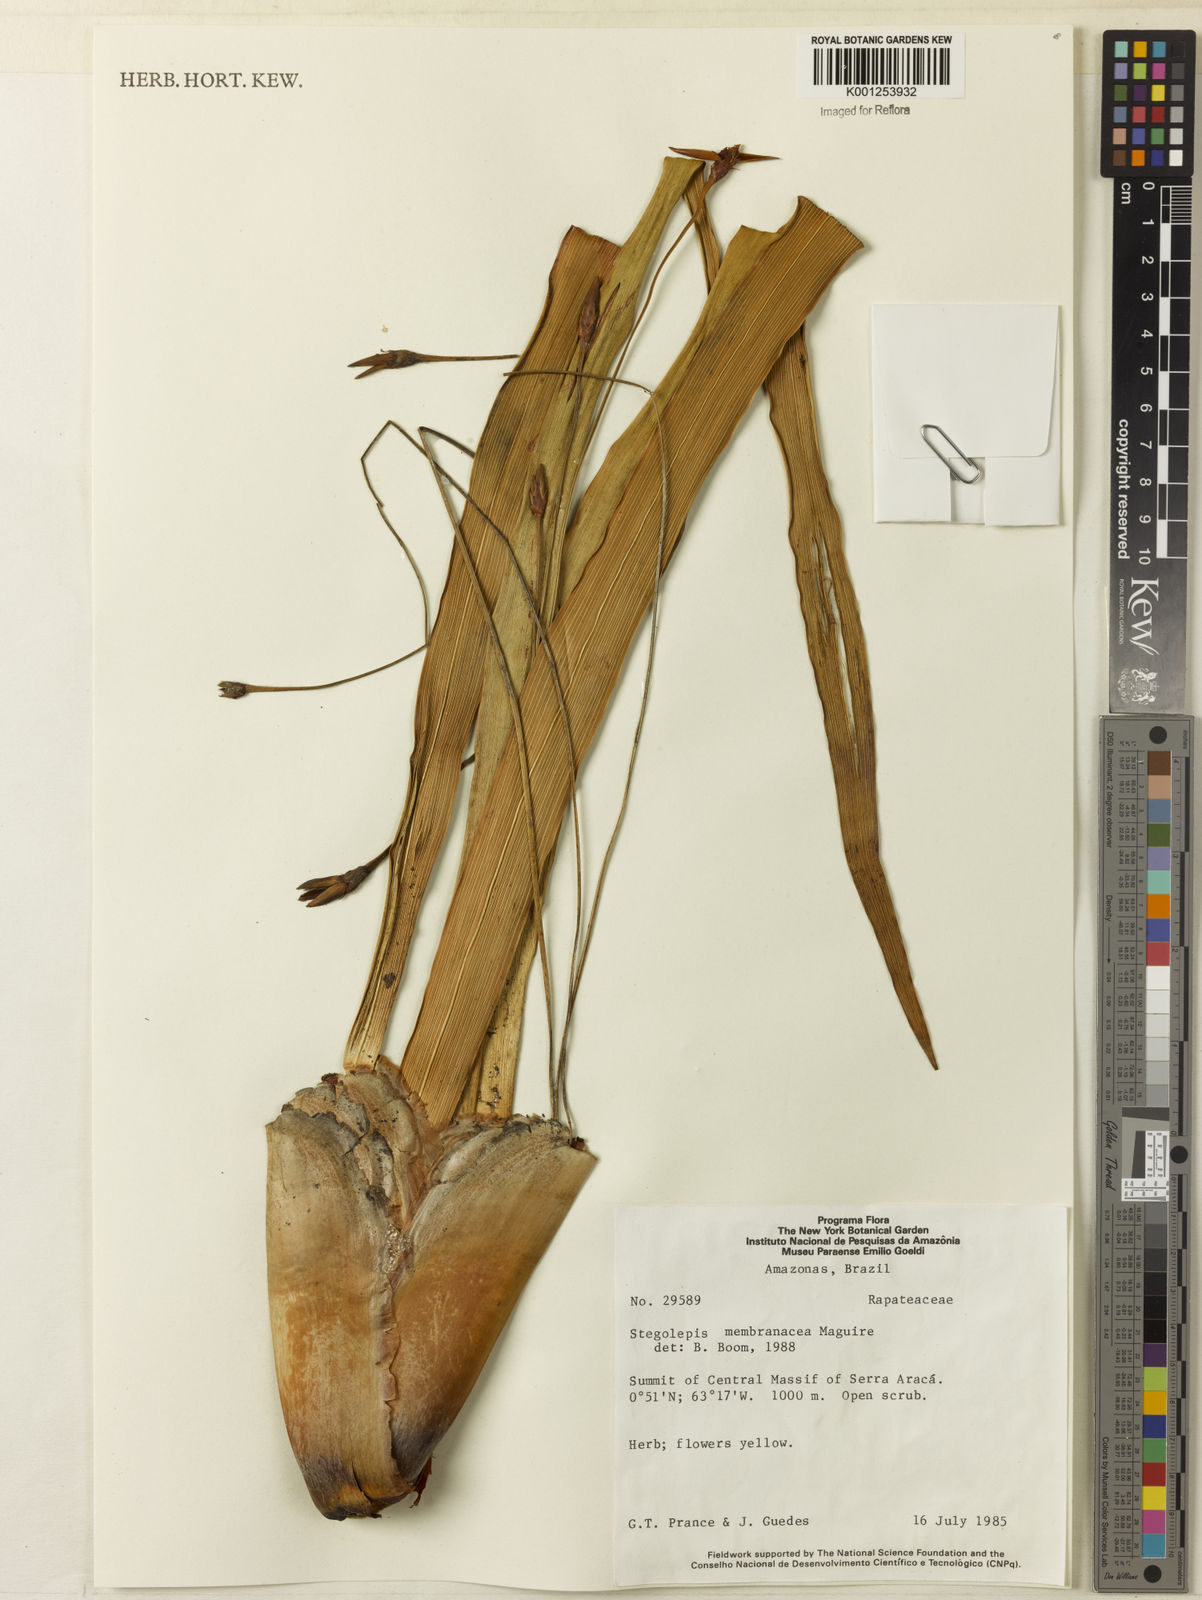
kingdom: Plantae
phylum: Tracheophyta
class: Liliopsida
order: Poales
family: Rapateaceae
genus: Stegolepis
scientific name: Stegolepis membranacea
